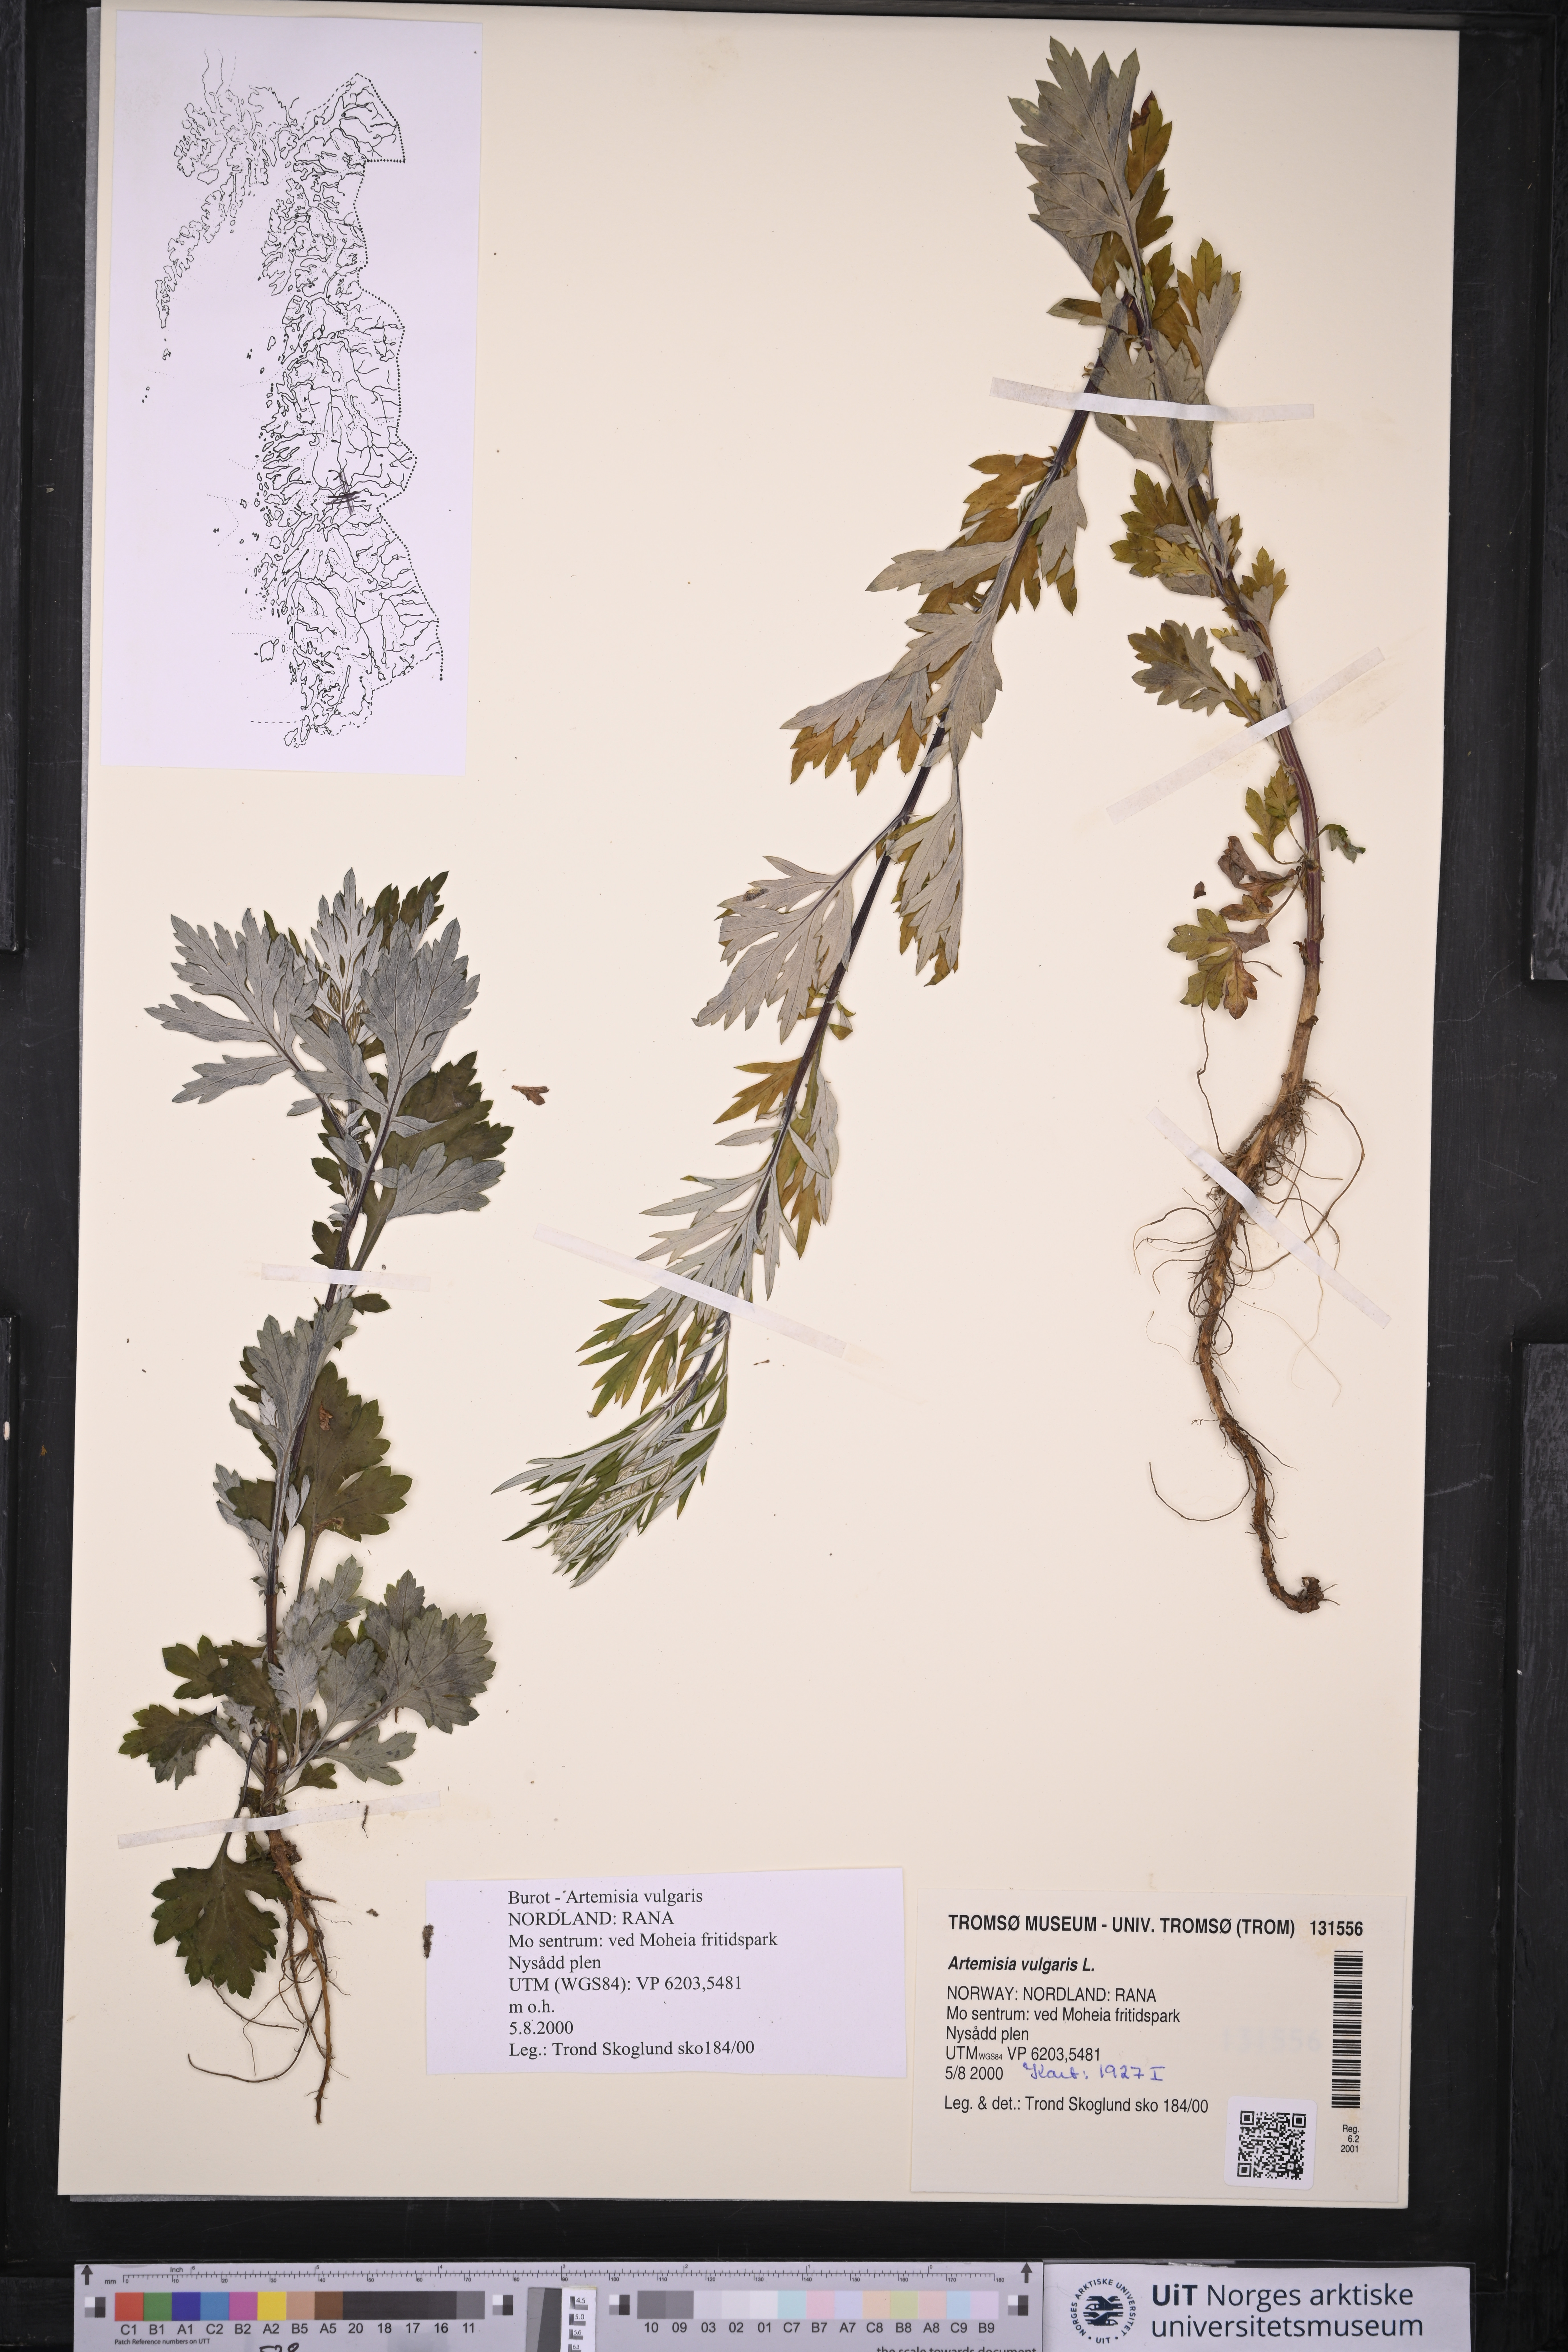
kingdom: Plantae
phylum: Tracheophyta
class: Magnoliopsida
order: Asterales
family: Asteraceae
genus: Artemisia
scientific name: Artemisia vulgaris
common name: Mugwort
